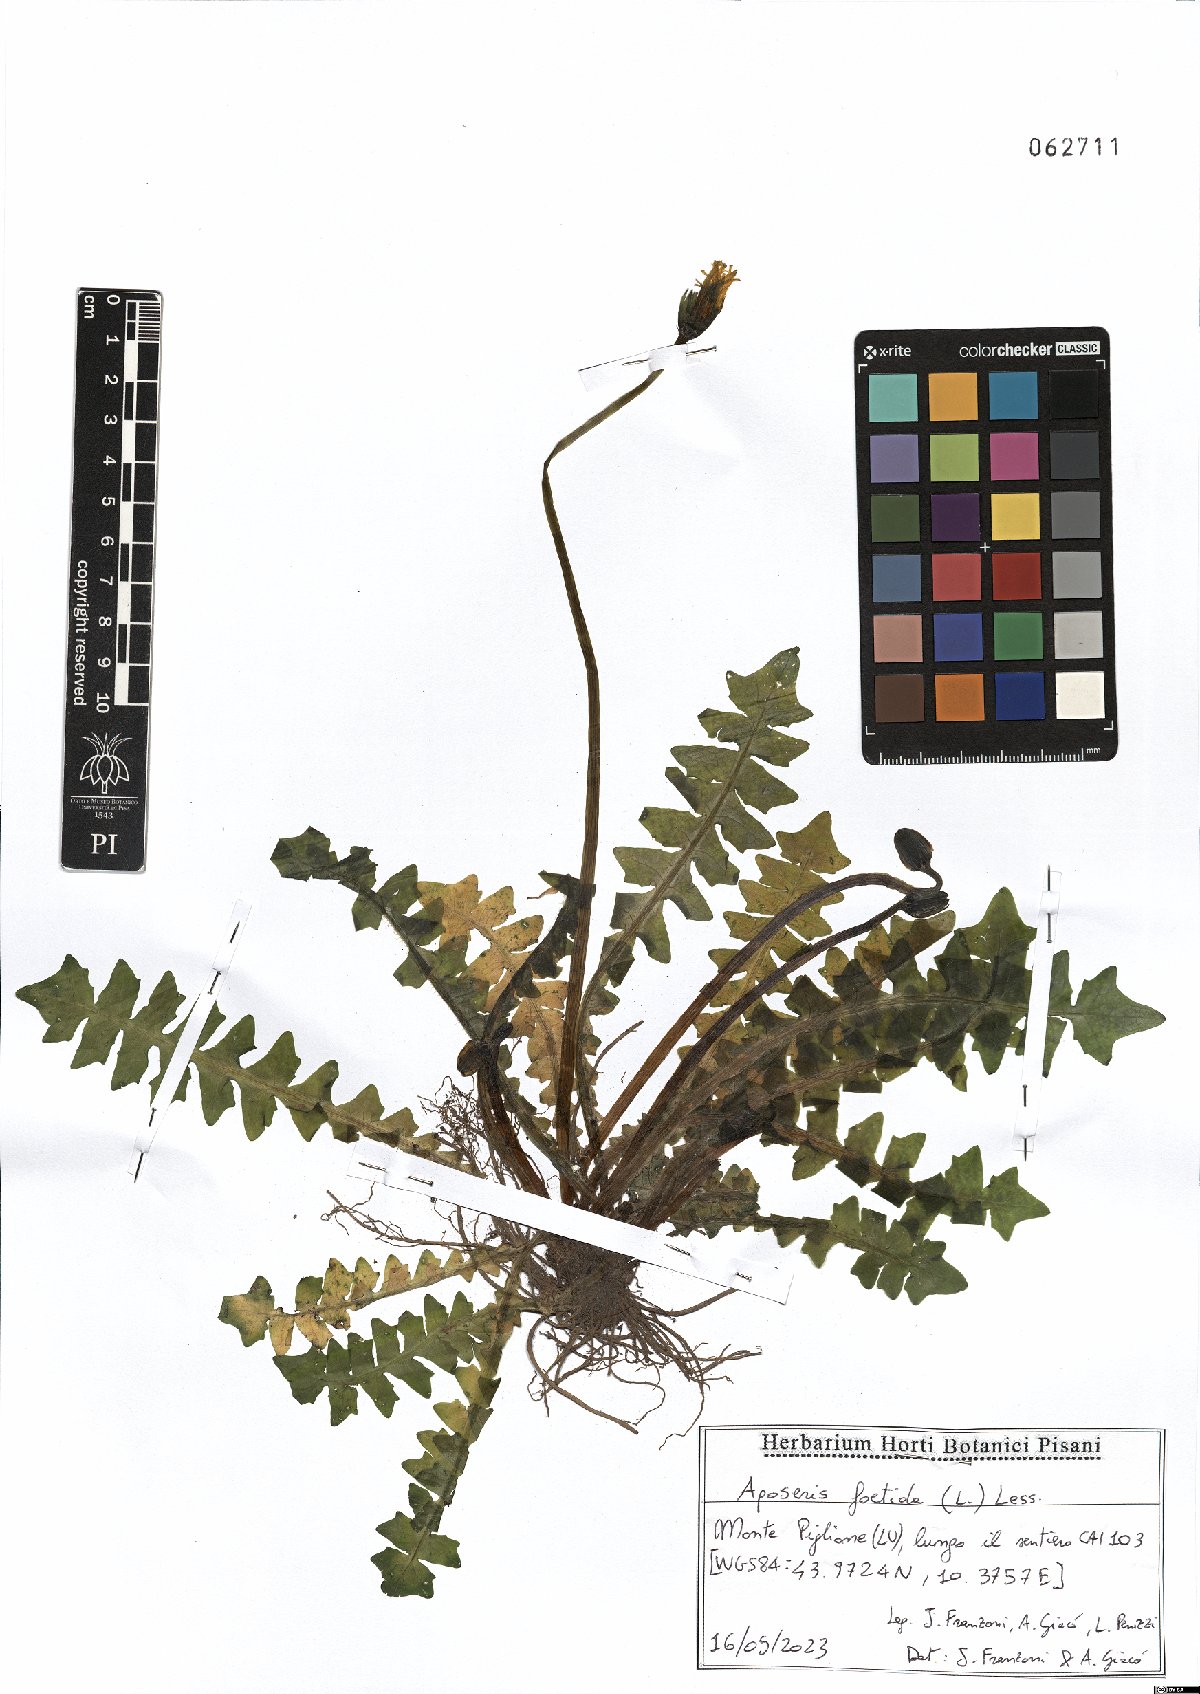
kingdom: Plantae
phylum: Tracheophyta
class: Magnoliopsida
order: Asterales
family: Asteraceae
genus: Aposeris
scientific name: Aposeris foetida
